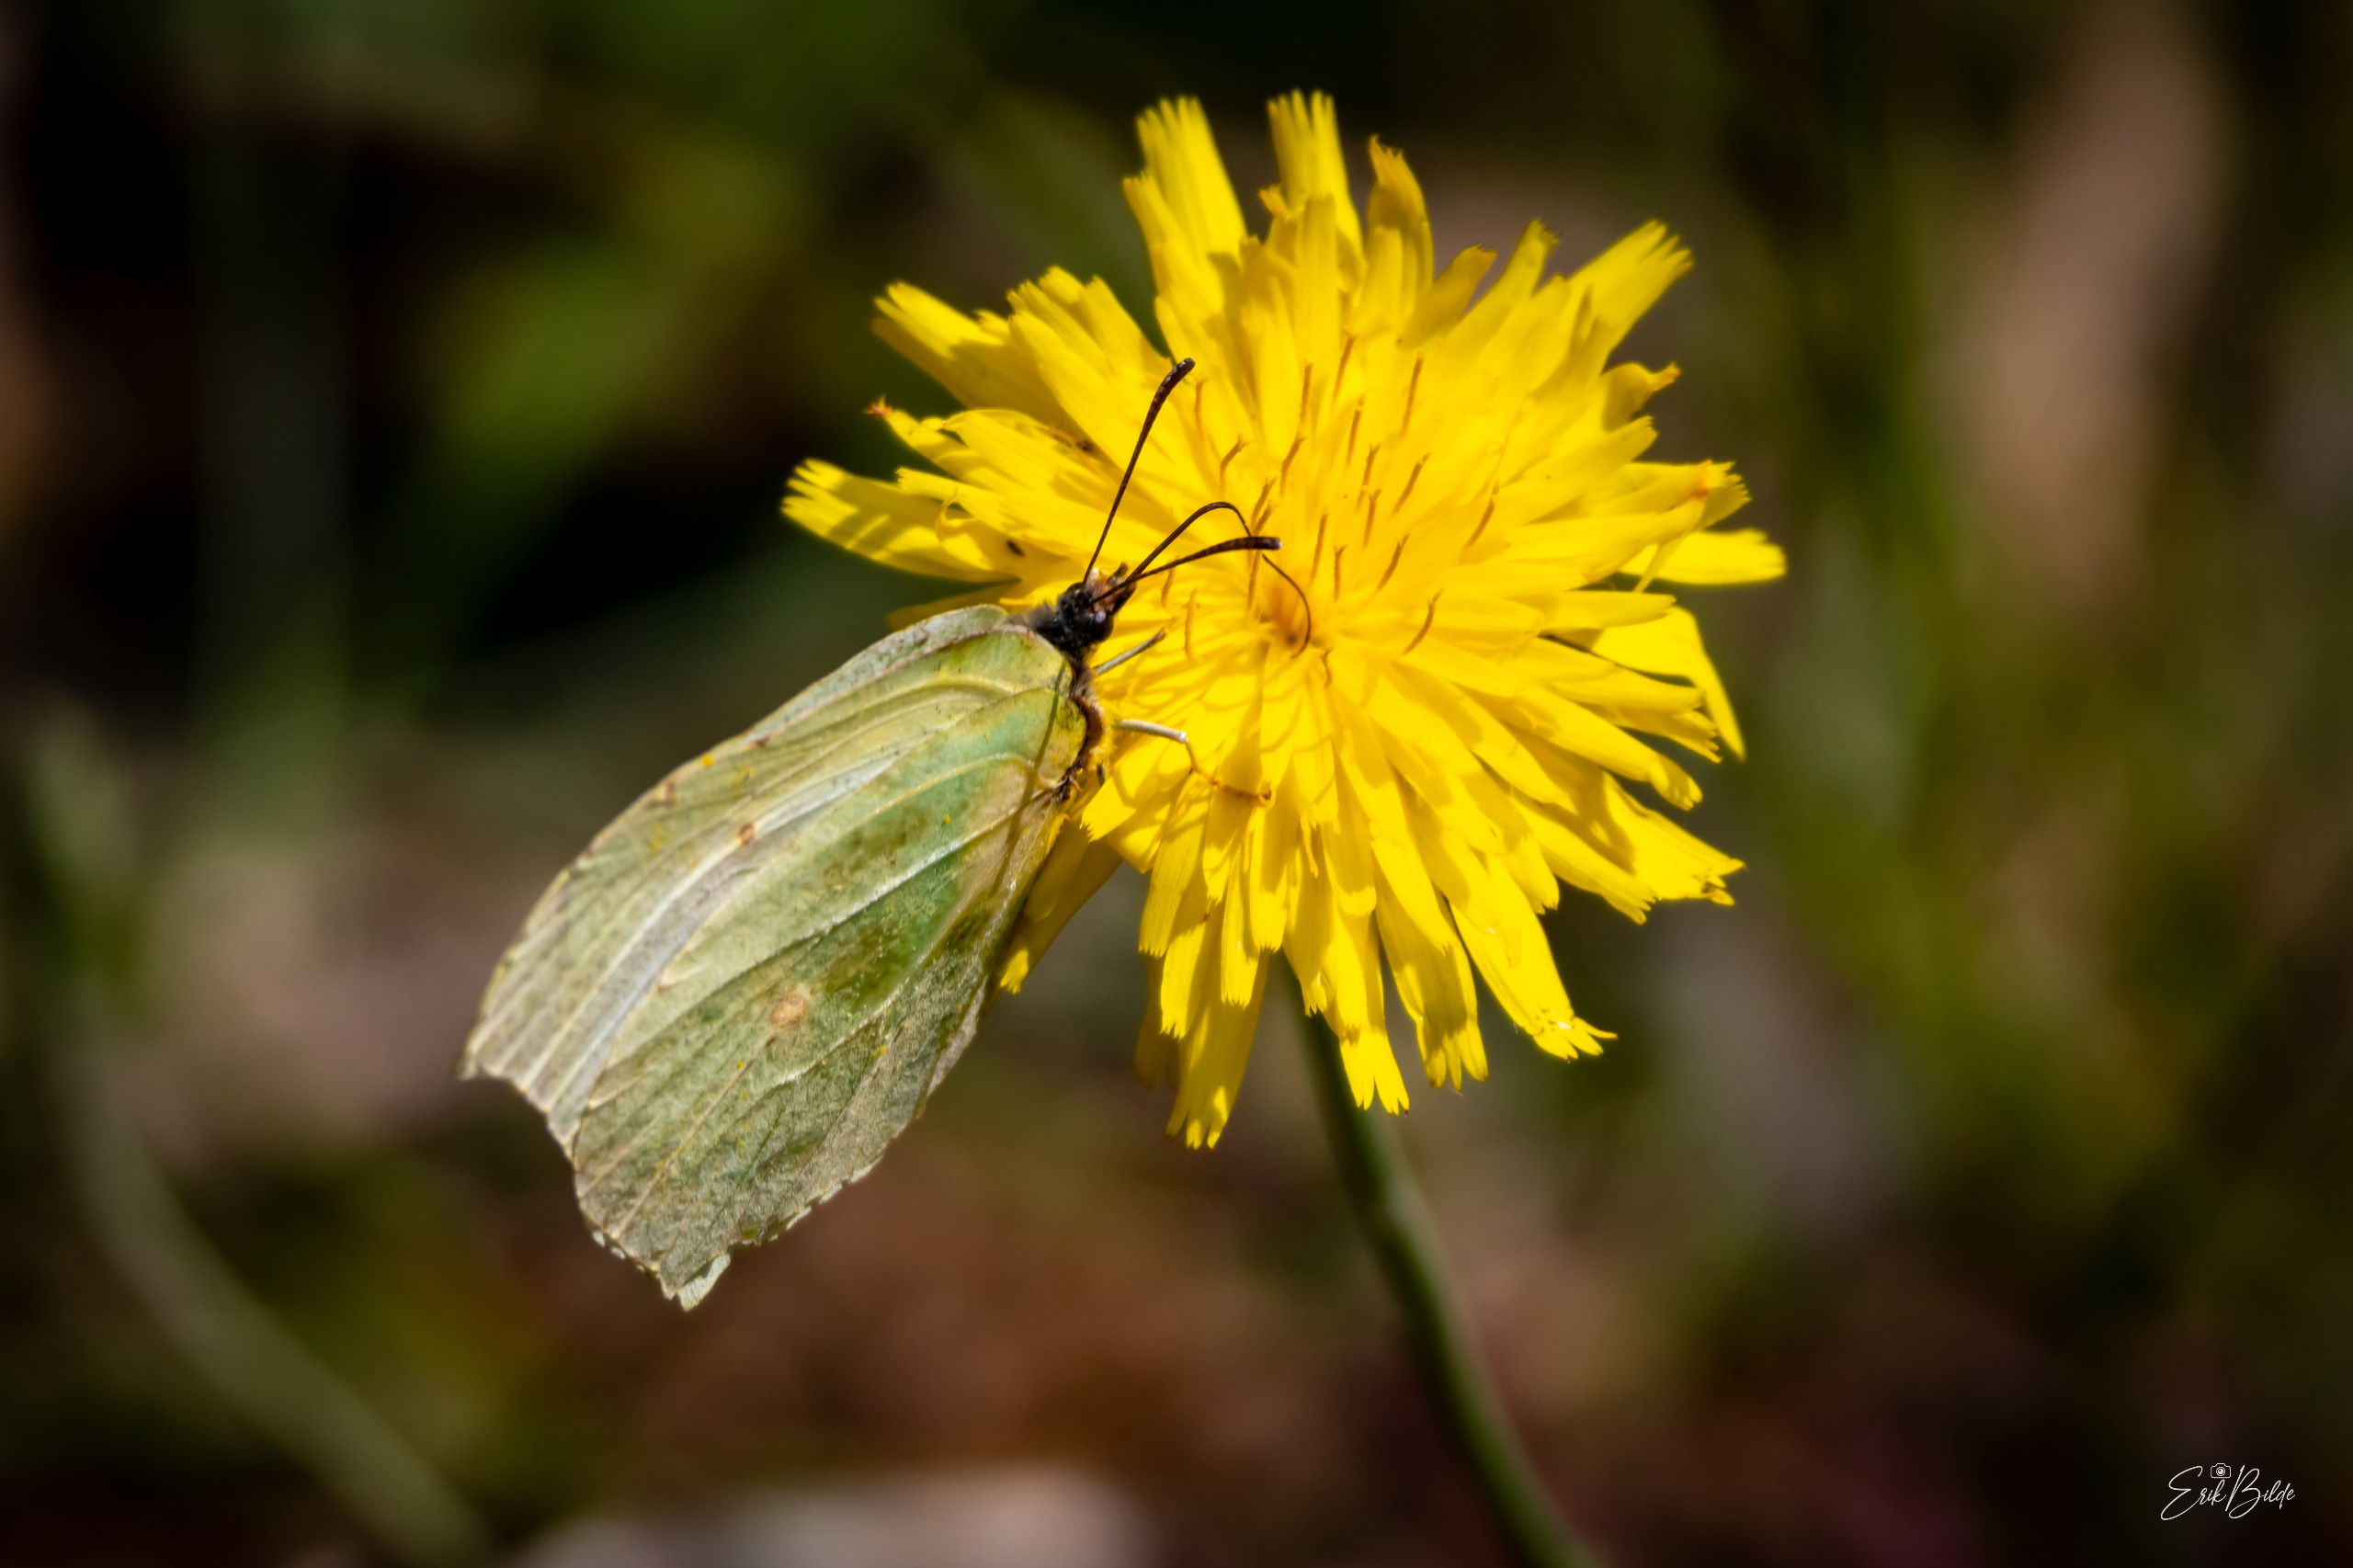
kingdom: Animalia
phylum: Arthropoda
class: Insecta
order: Lepidoptera
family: Pieridae
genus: Gonepteryx
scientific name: Gonepteryx rhamni
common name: Citronsommerfugl
